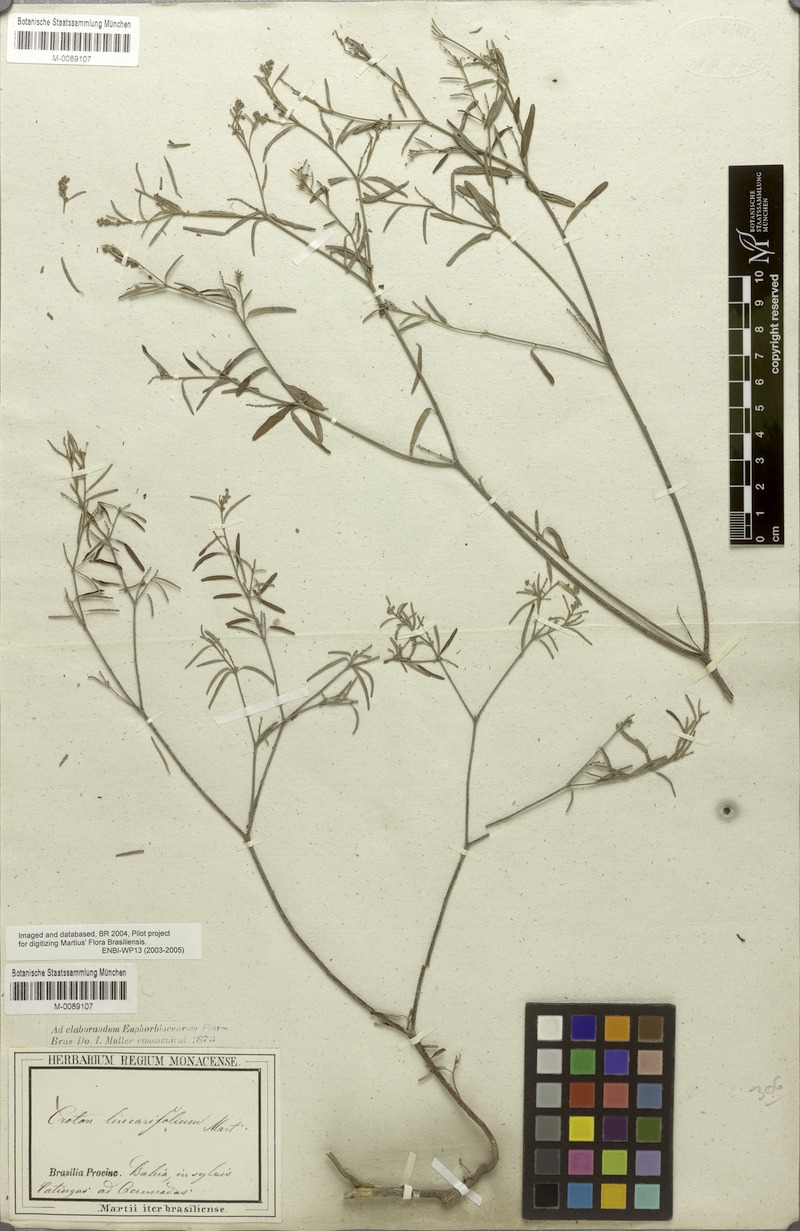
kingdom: Plantae
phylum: Tracheophyta
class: Magnoliopsida
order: Malpighiales
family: Euphorbiaceae
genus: Croton
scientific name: Croton linearifolius
